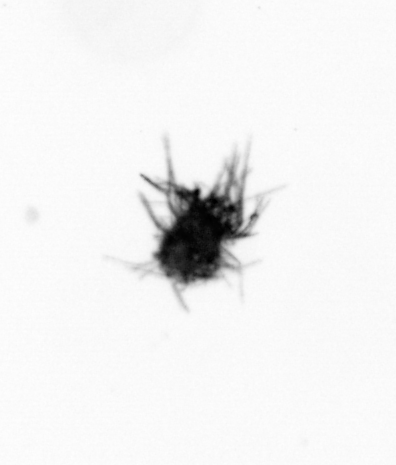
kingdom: Bacteria
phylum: Cyanobacteria
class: Cyanobacteriia
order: Cyanobacteriales
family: Microcoleaceae
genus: Trichodesmium
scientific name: Trichodesmium
